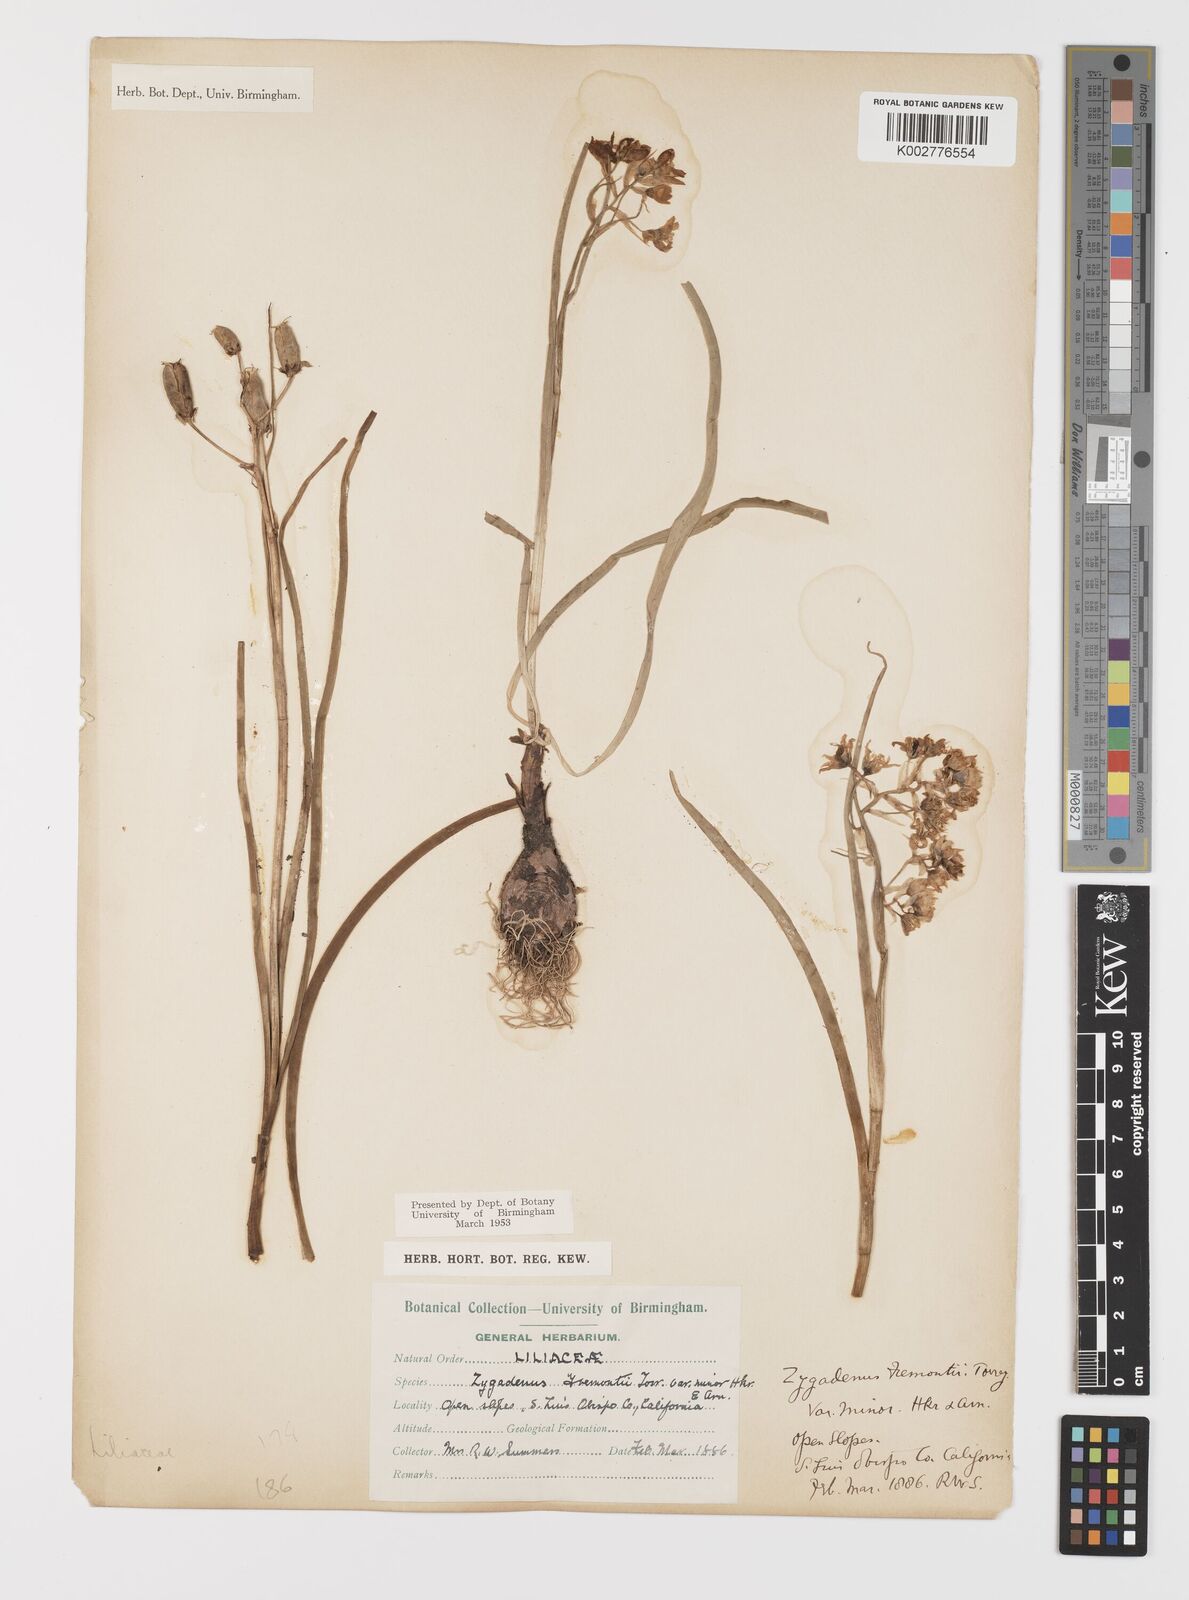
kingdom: Plantae
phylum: Tracheophyta
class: Liliopsida
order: Liliales
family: Melanthiaceae
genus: Toxicoscordion
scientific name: Toxicoscordion fremontii
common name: Fremont's death camas
